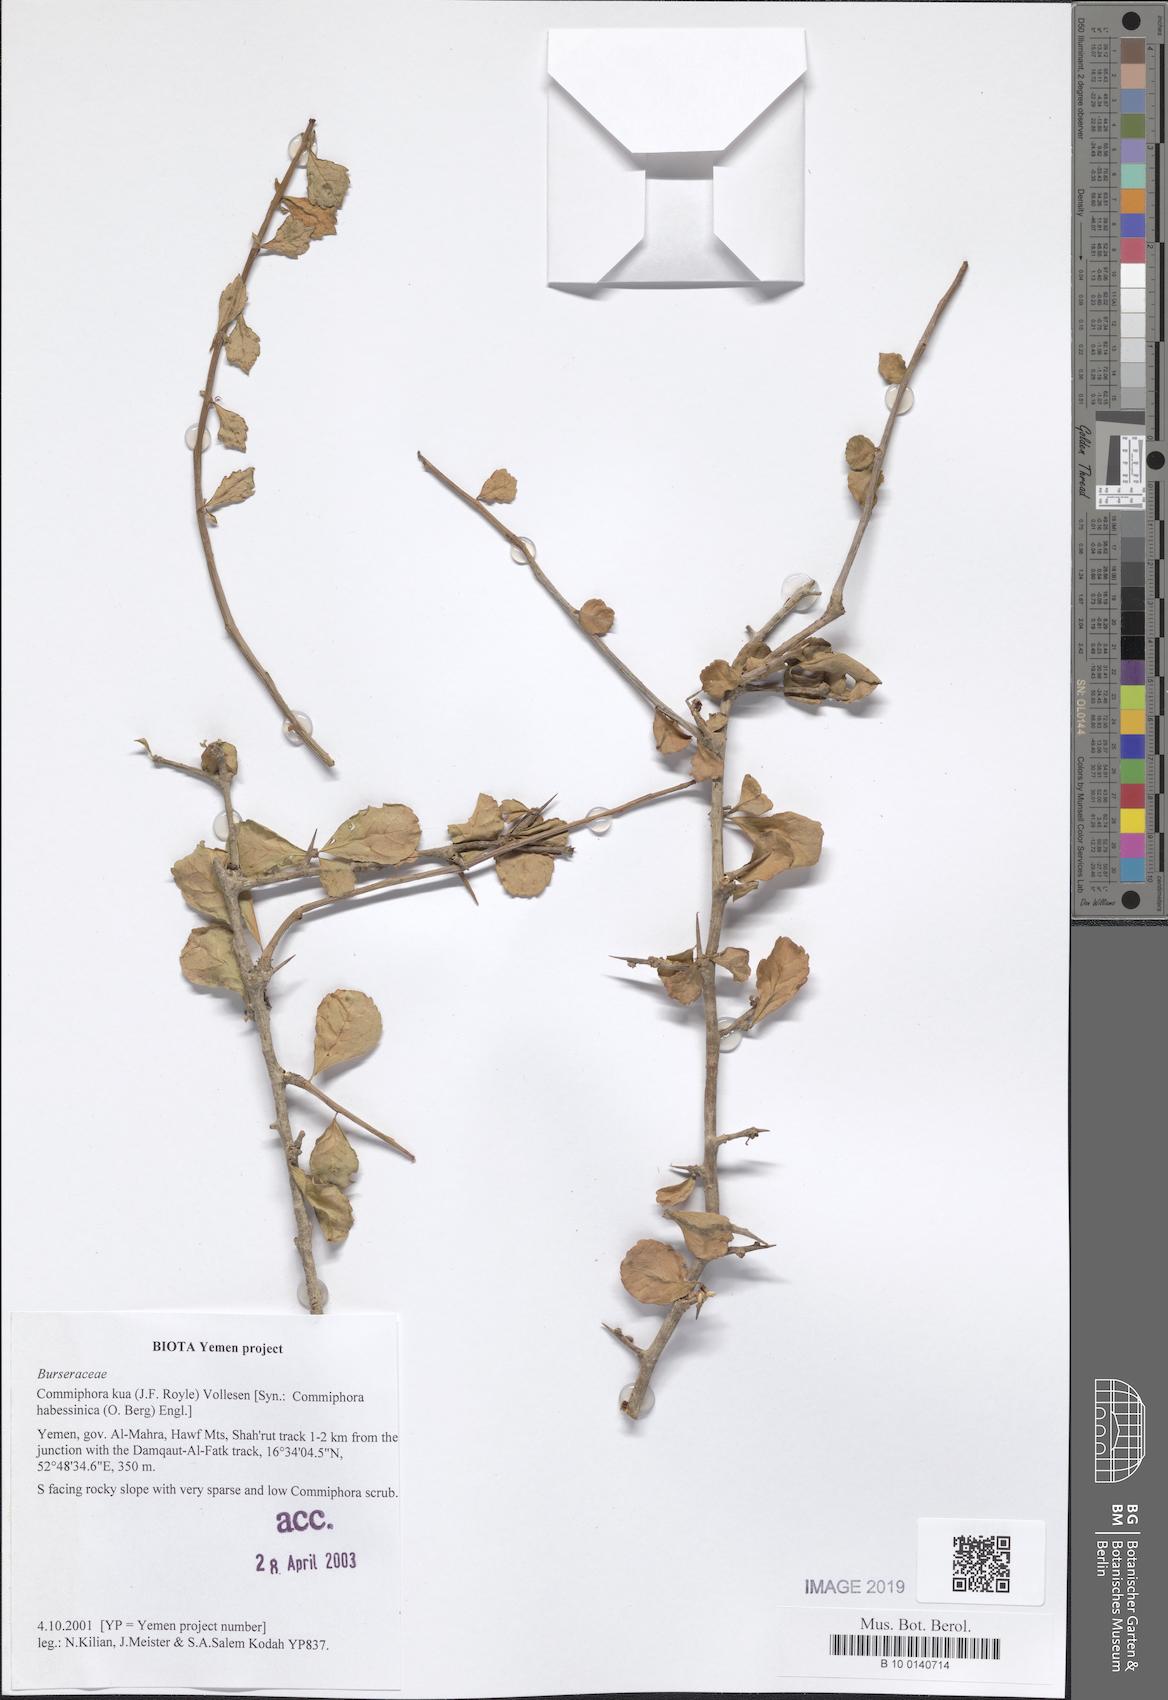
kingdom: Plantae
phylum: Tracheophyta
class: Magnoliopsida
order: Sapindales
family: Burseraceae
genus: Commiphora
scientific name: Commiphora kua
